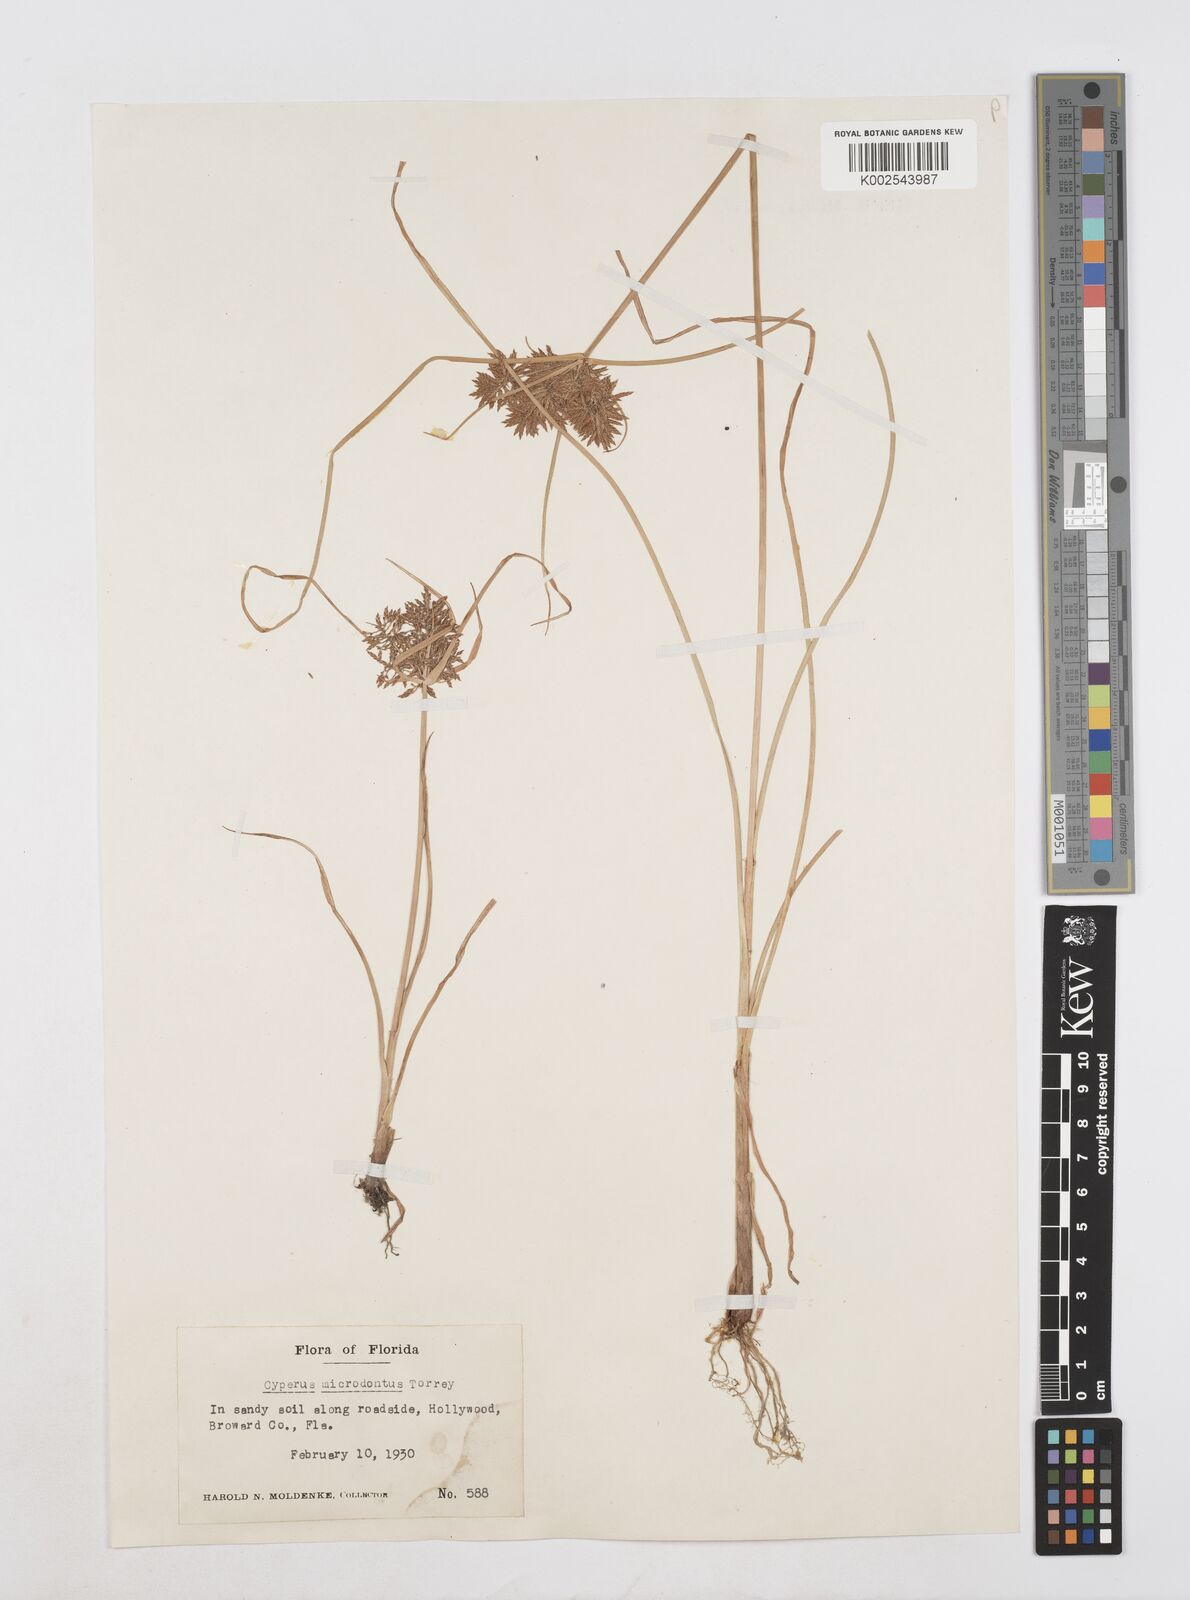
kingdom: Plantae
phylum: Tracheophyta
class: Liliopsida
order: Poales
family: Cyperaceae
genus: Cyperus
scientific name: Cyperus polystachyos
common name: Bunchy flat sedge
